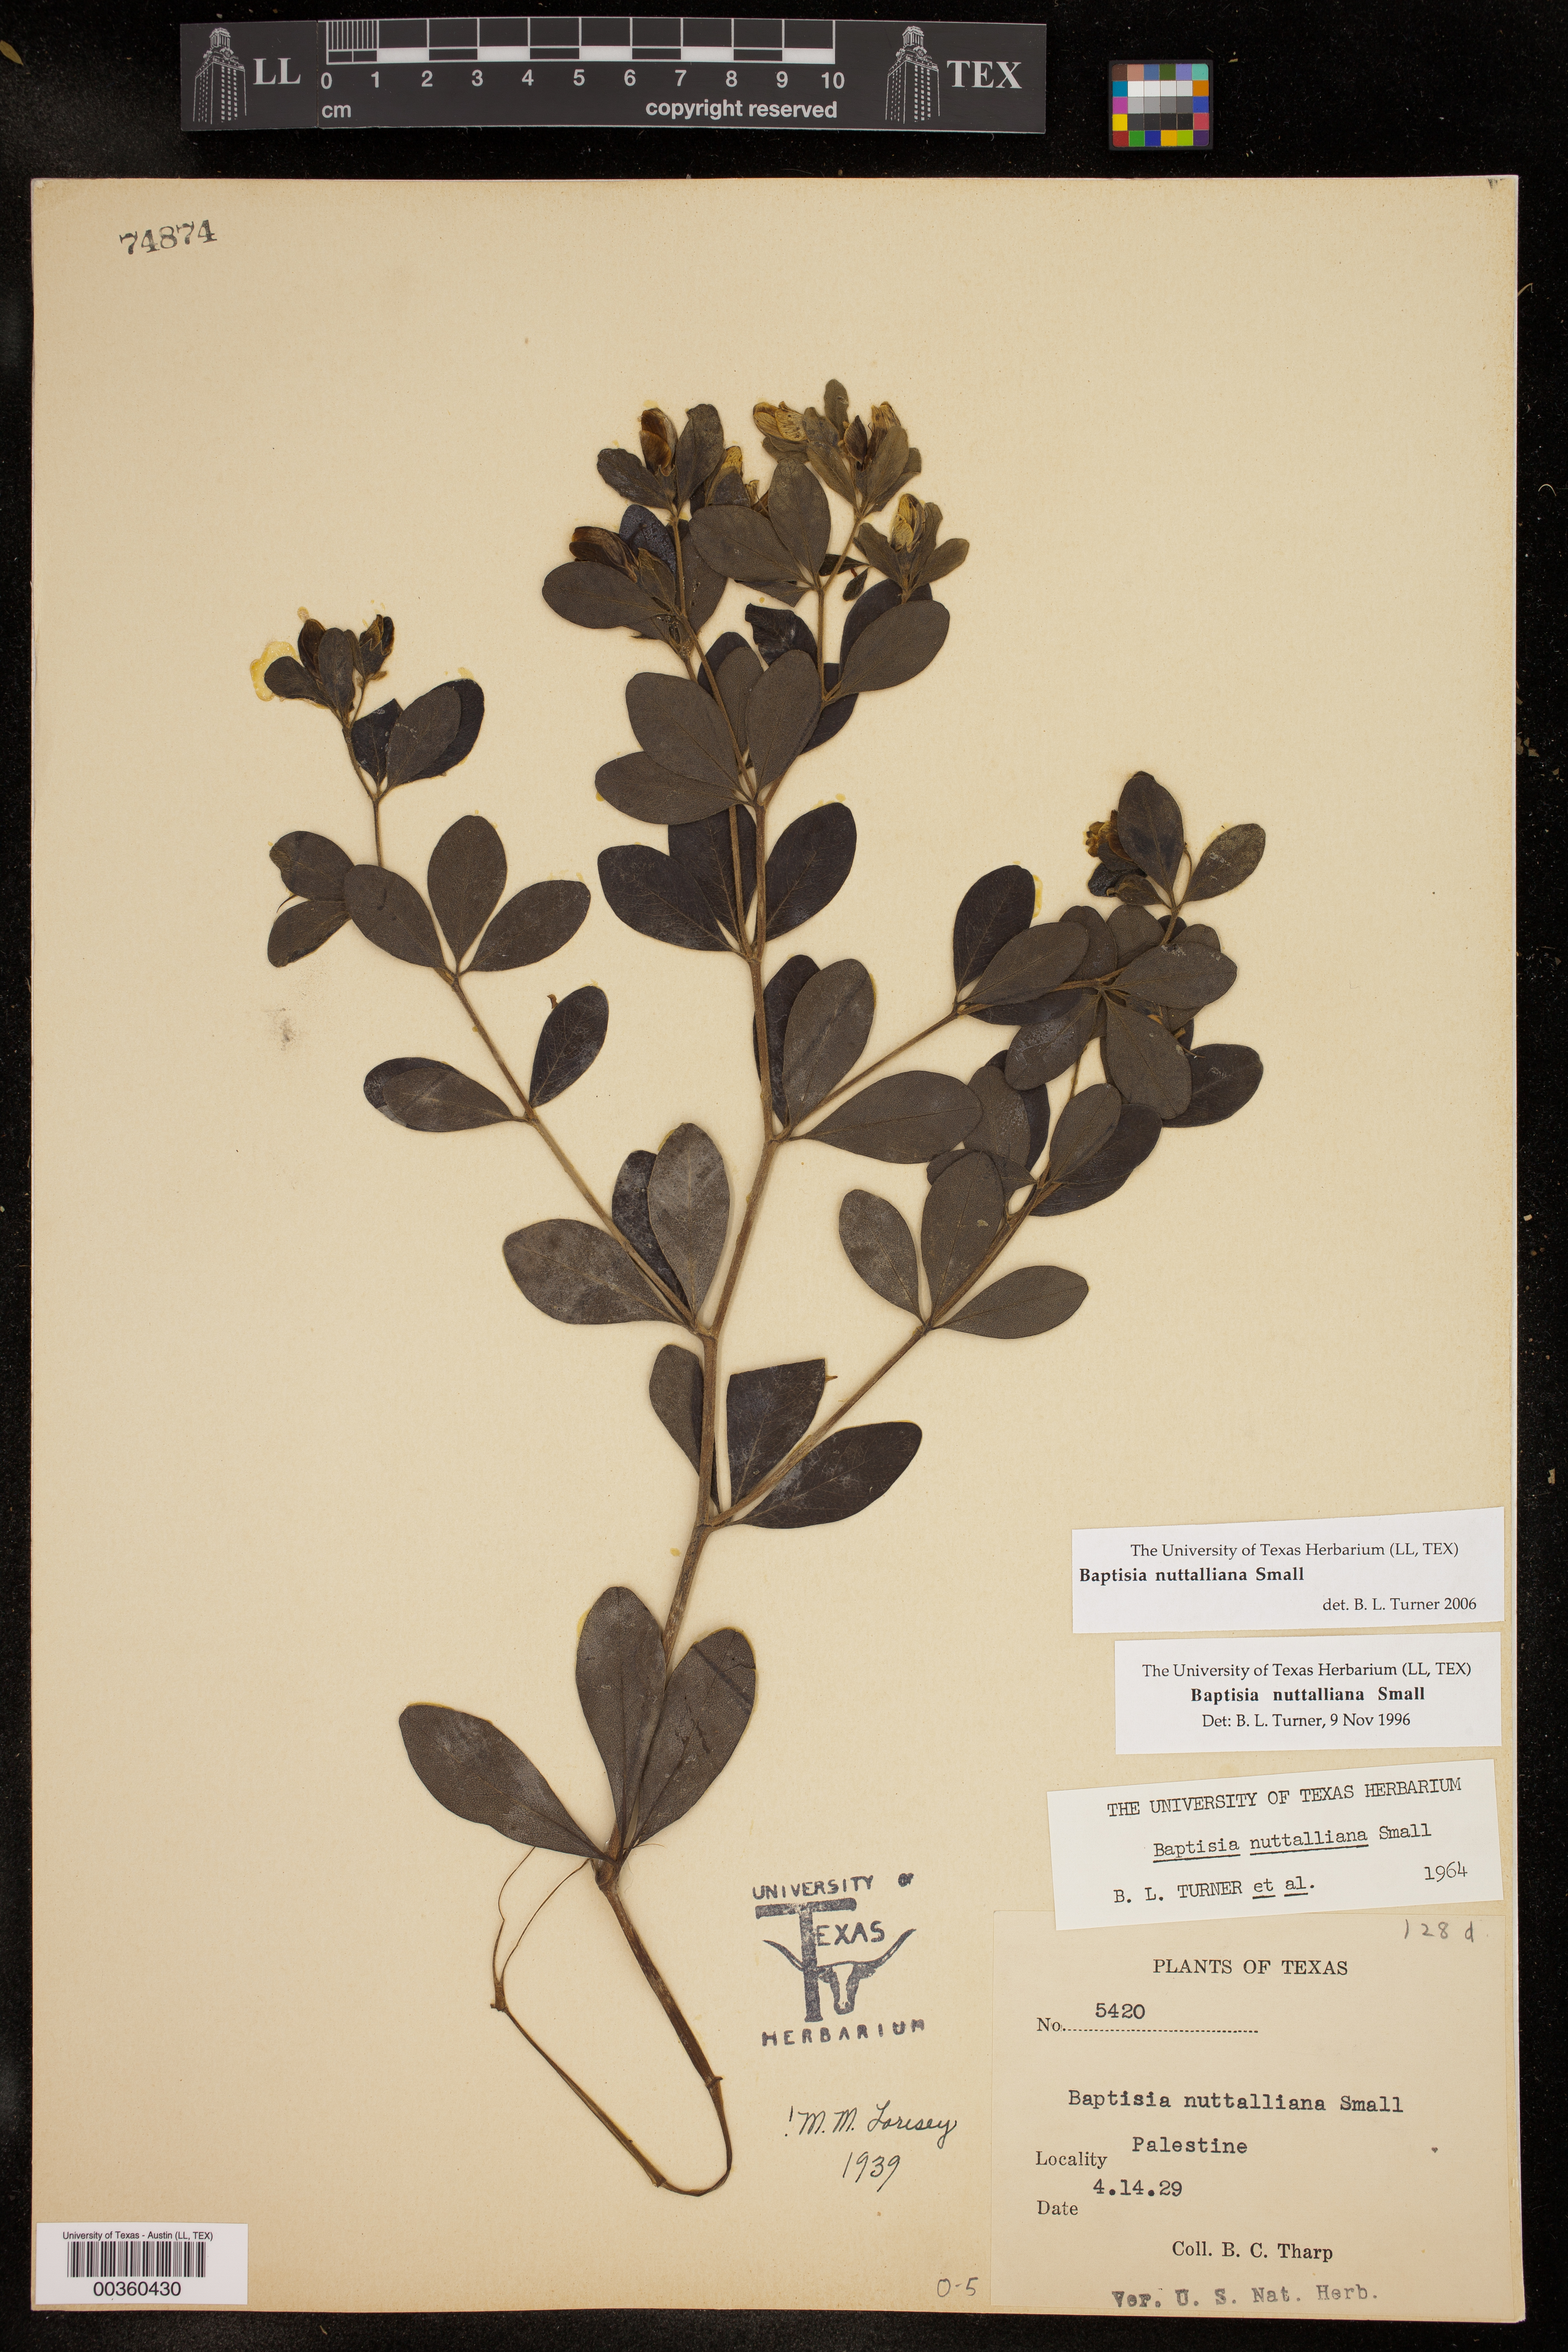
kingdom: Plantae
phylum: Tracheophyta
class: Magnoliopsida
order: Fabales
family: Fabaceae
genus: Baptisia
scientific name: Baptisia nuttalliana
